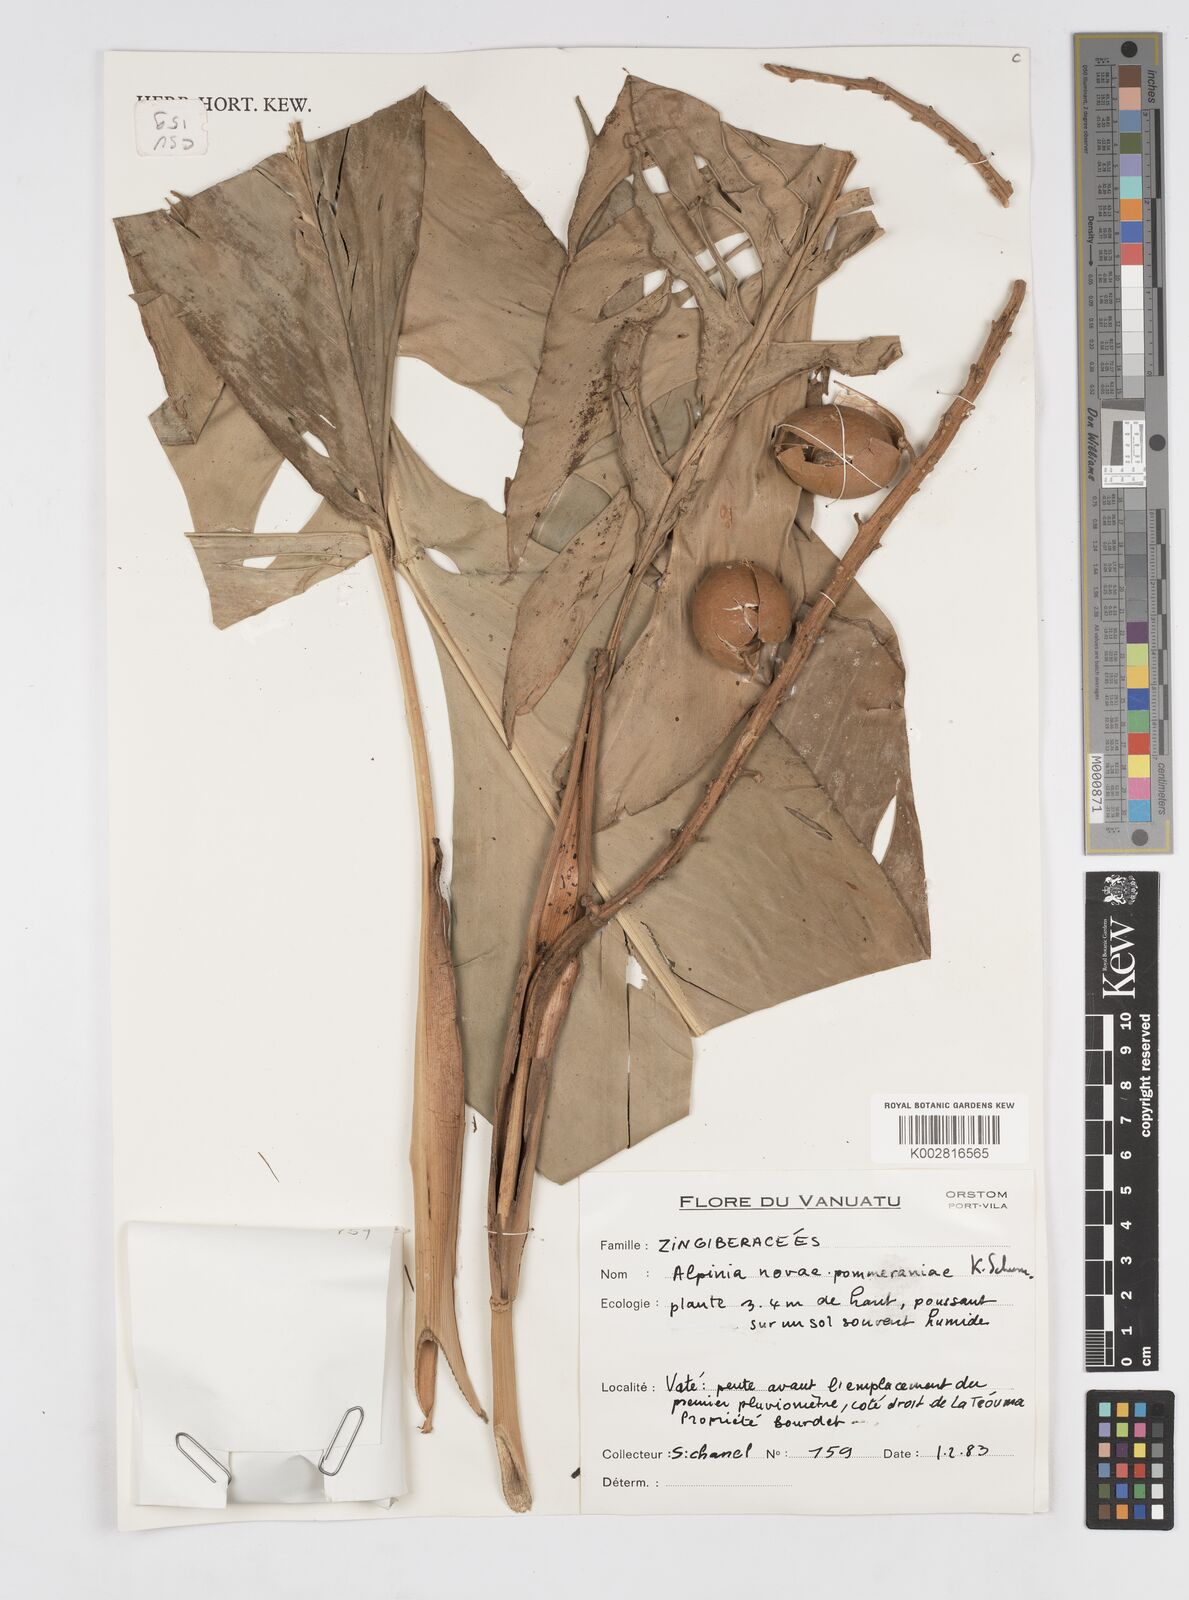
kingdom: Plantae
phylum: Tracheophyta
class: Liliopsida
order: Zingiberales
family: Zingiberaceae
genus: Alpinia
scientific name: Alpinia novae-pommeraniae
